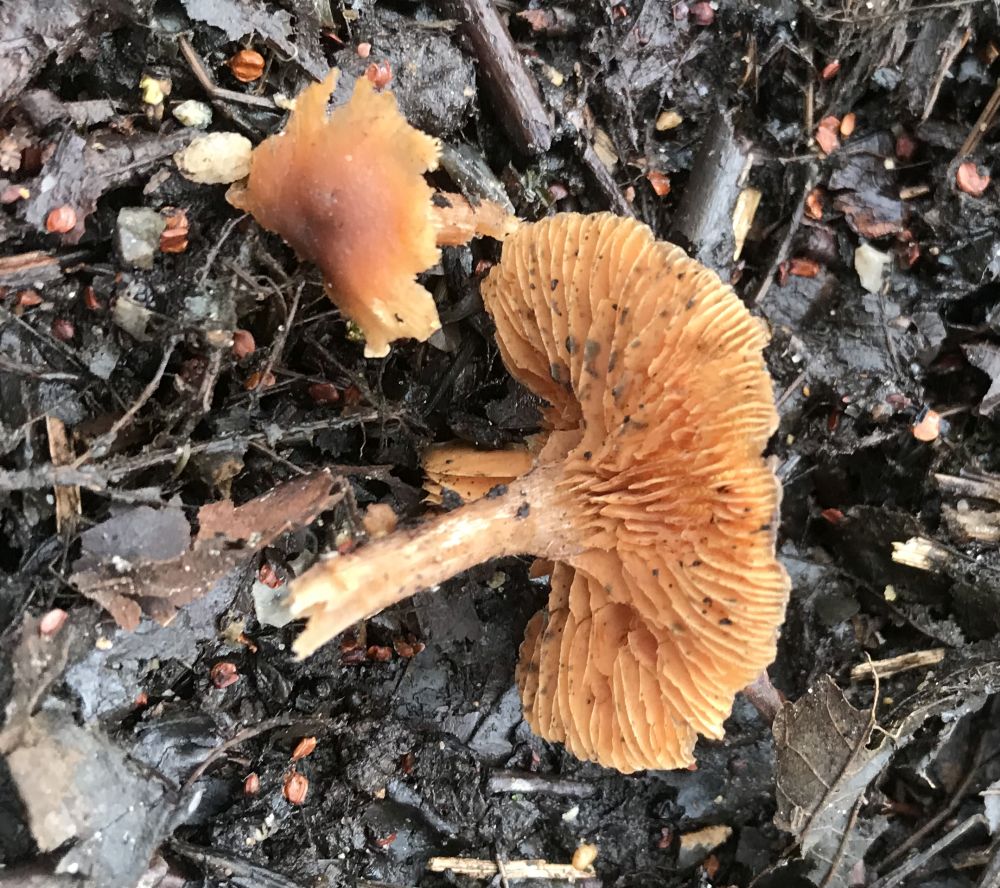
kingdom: Fungi
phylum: Basidiomycota
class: Agaricomycetes
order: Agaricales
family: Tubariaceae
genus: Tubaria
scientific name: Tubaria furfuracea
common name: kliddet fnughat
